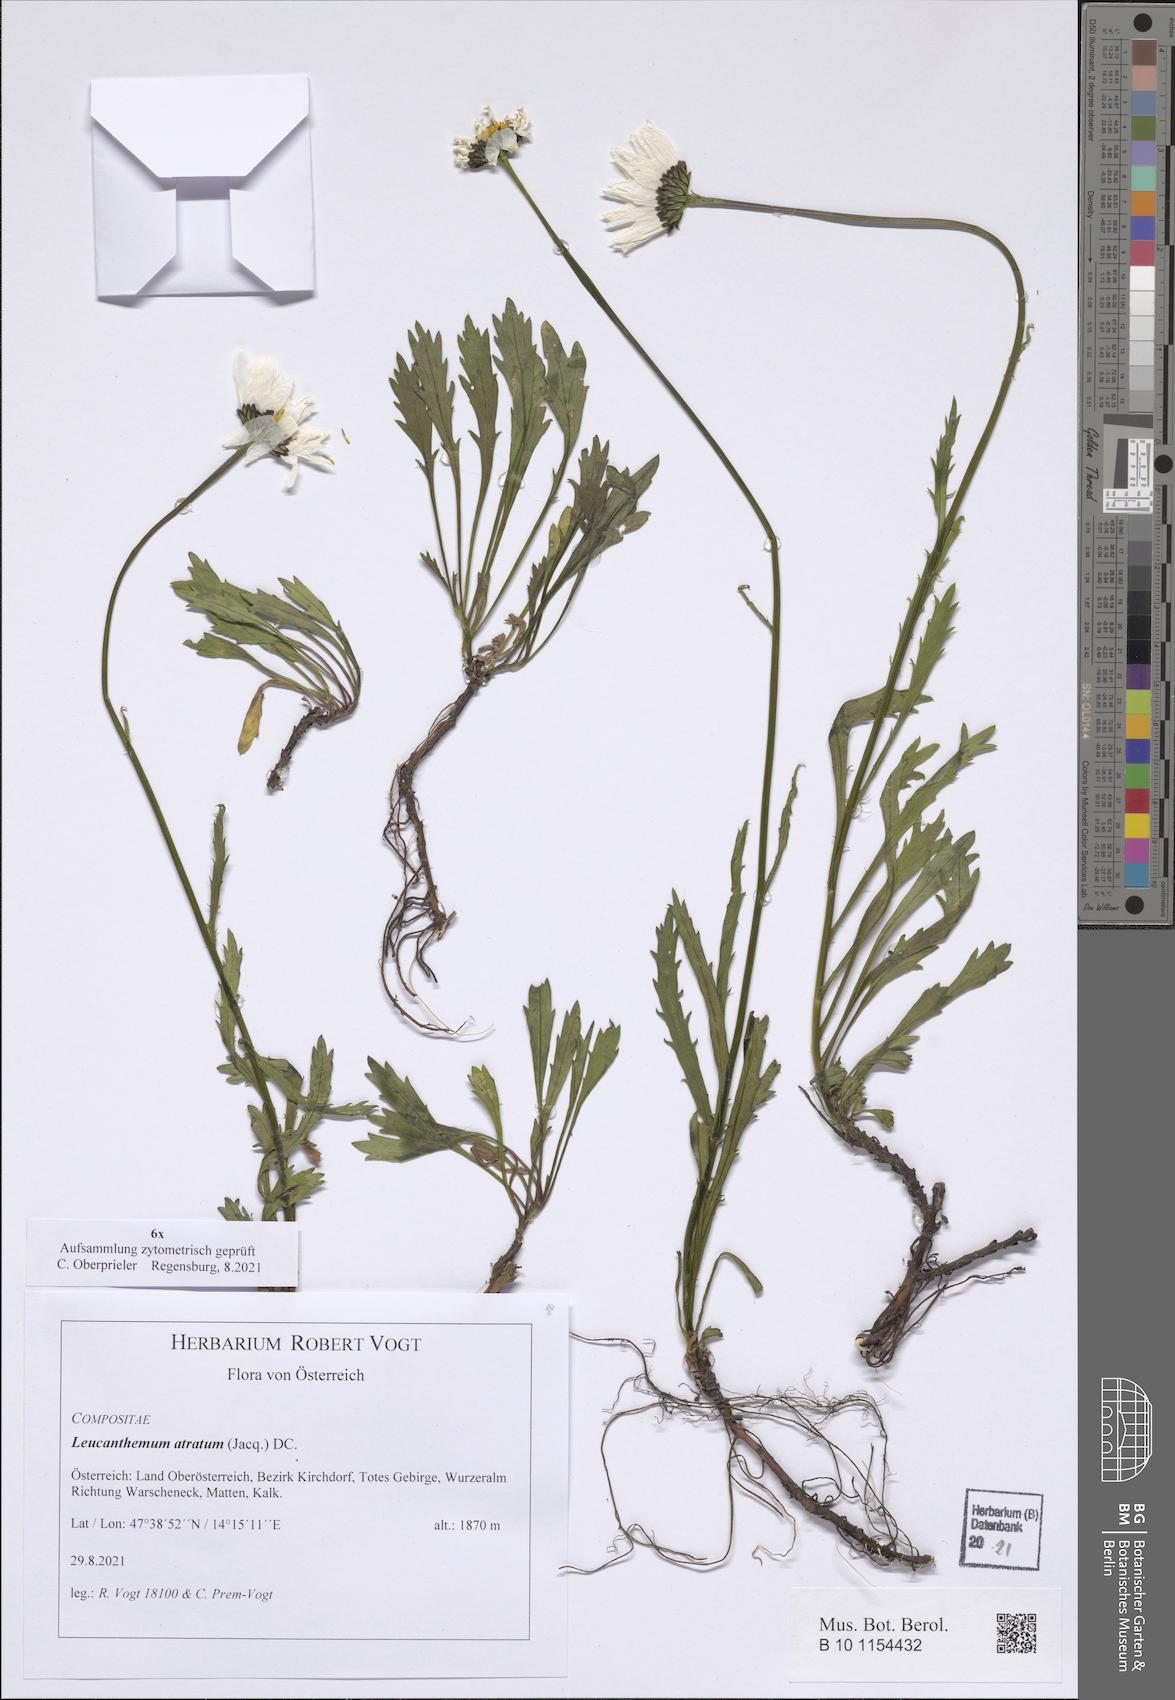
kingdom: Plantae
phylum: Tracheophyta
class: Magnoliopsida
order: Asterales
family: Asteraceae
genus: Leucanthemum
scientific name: Leucanthemum atratum
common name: Saw-leaved moon-daisy
